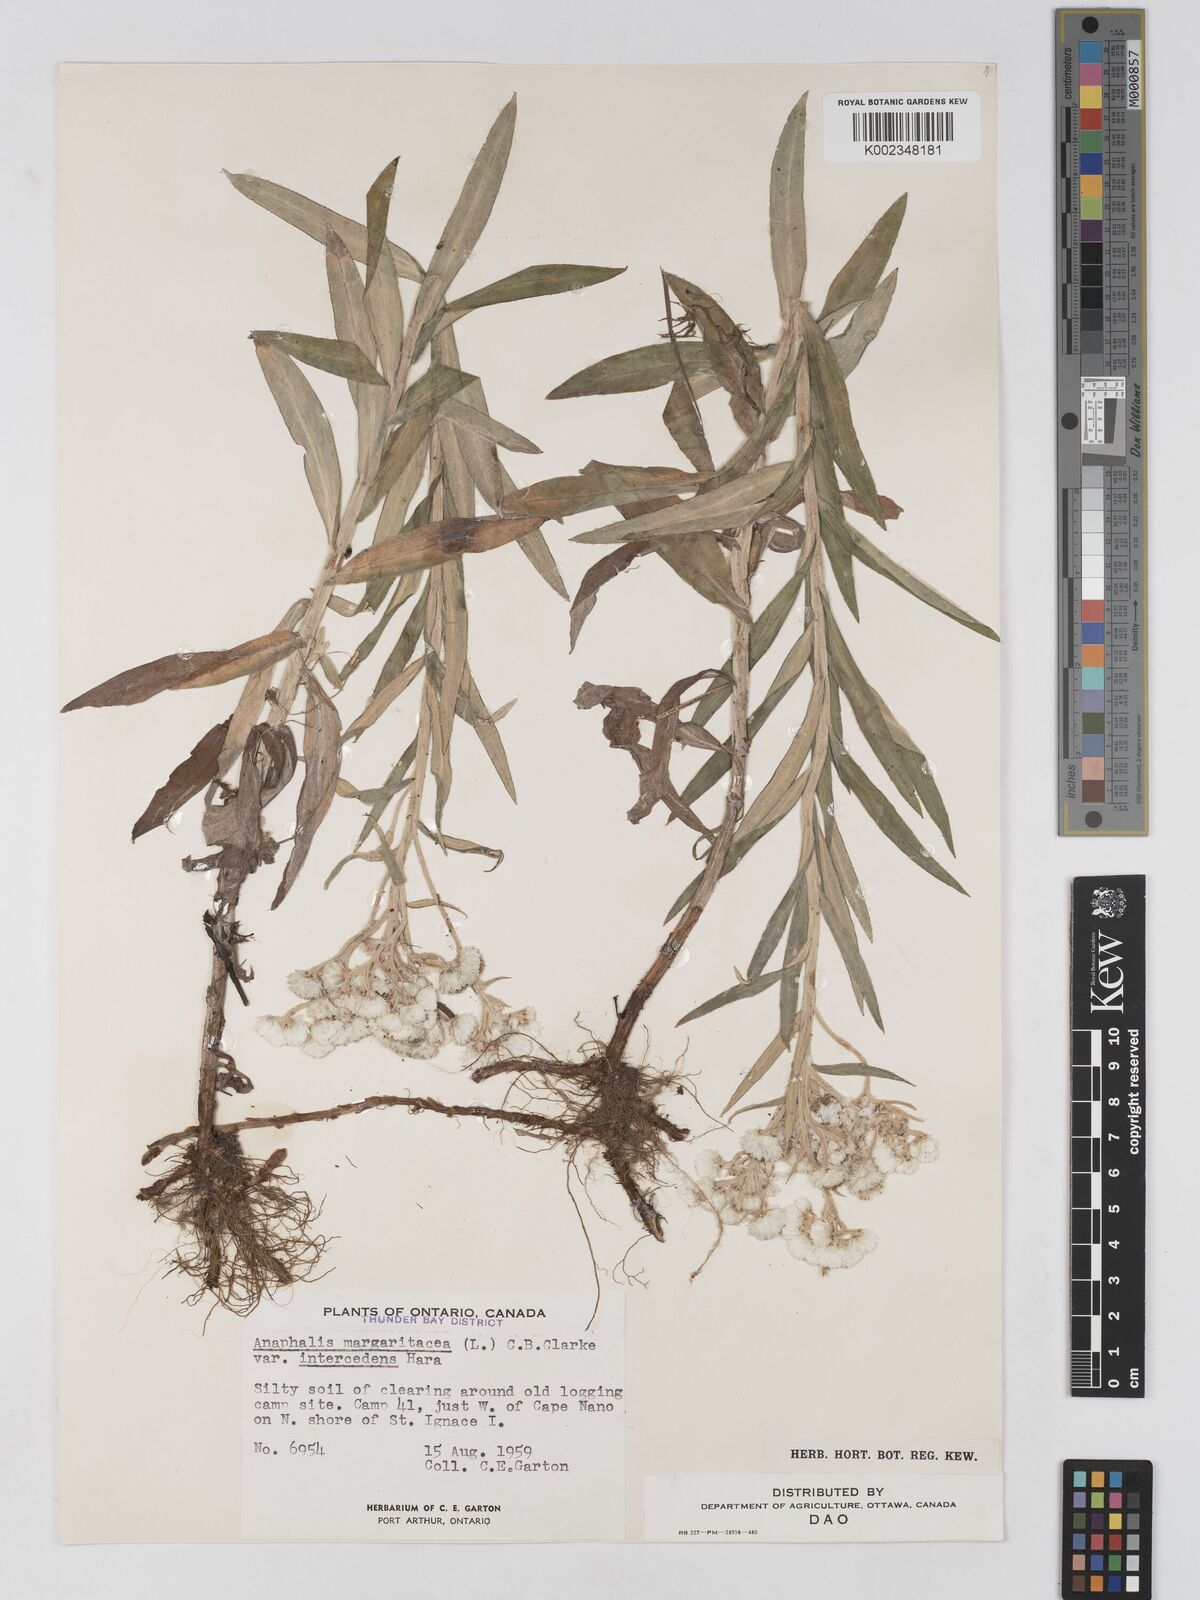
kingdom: Plantae
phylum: Tracheophyta
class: Magnoliopsida
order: Asterales
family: Asteraceae
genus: Anaphalis
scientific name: Anaphalis margaritacea
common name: Pearly everlasting
